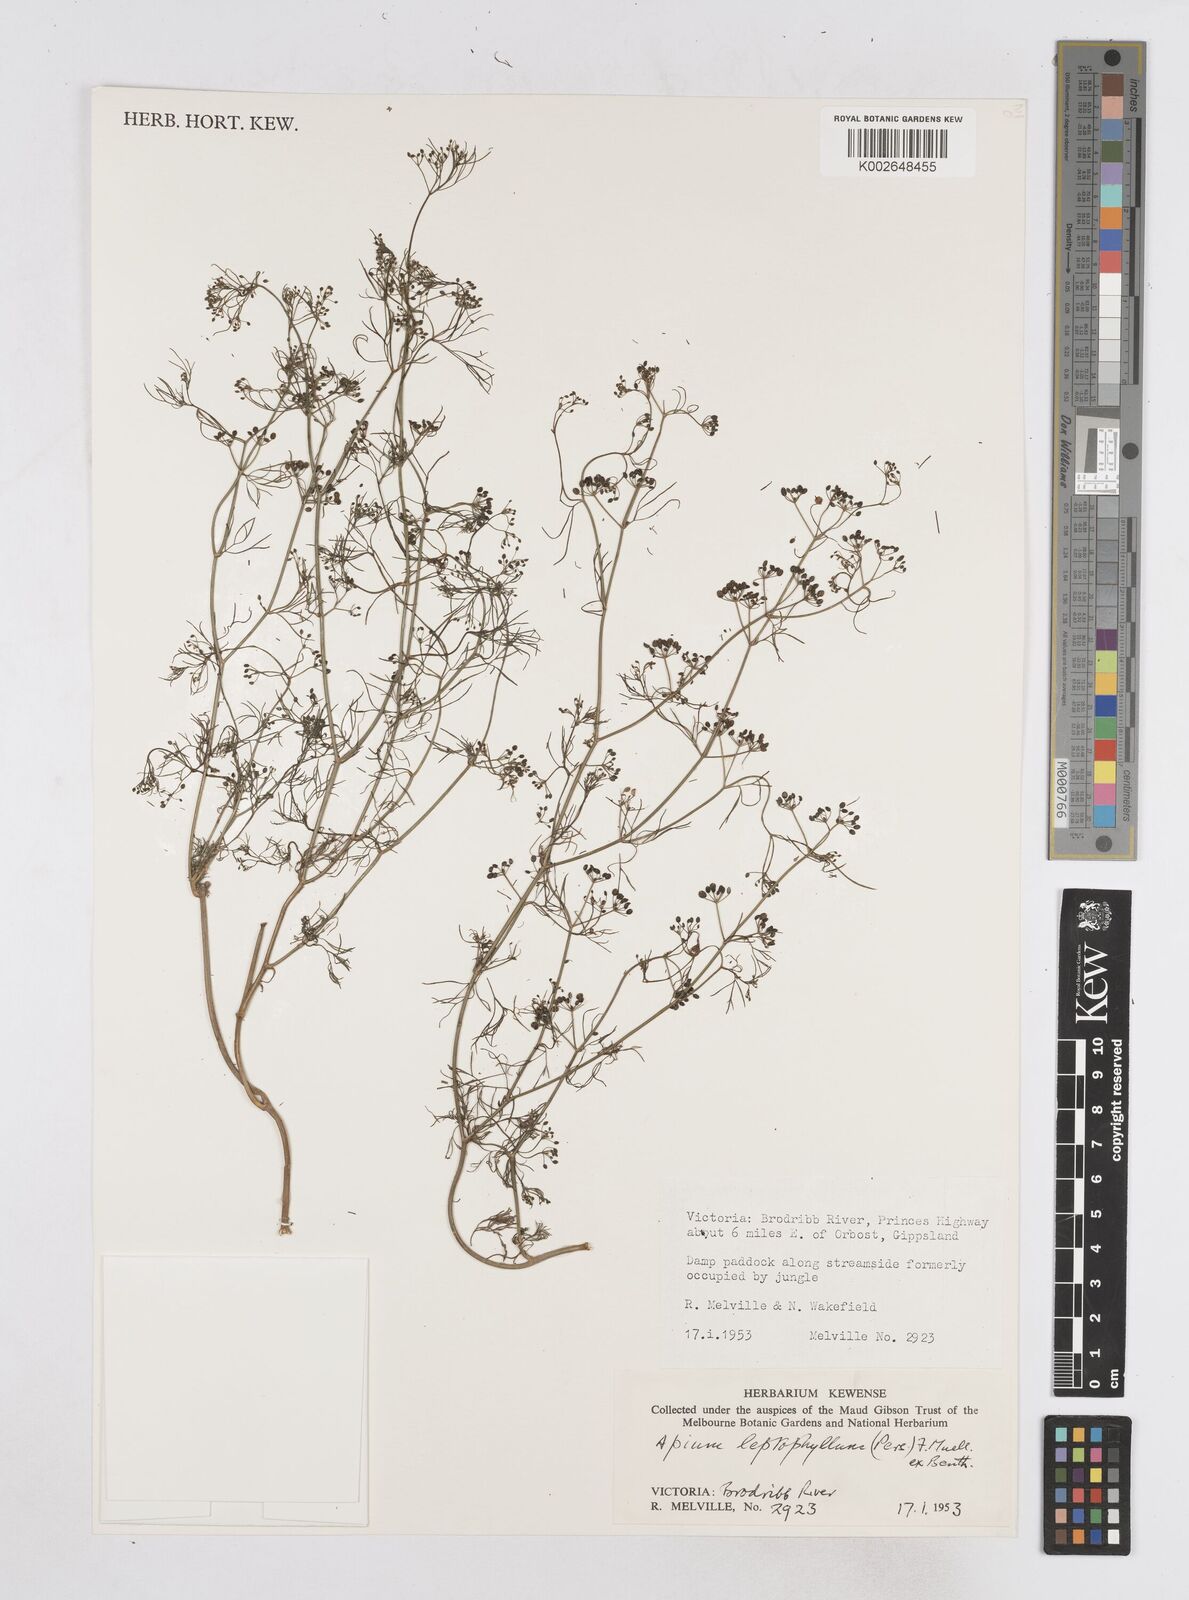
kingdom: Plantae
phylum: Tracheophyta
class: Magnoliopsida
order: Apiales
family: Apiaceae
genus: Cyclospermum
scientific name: Cyclospermum leptophyllum
